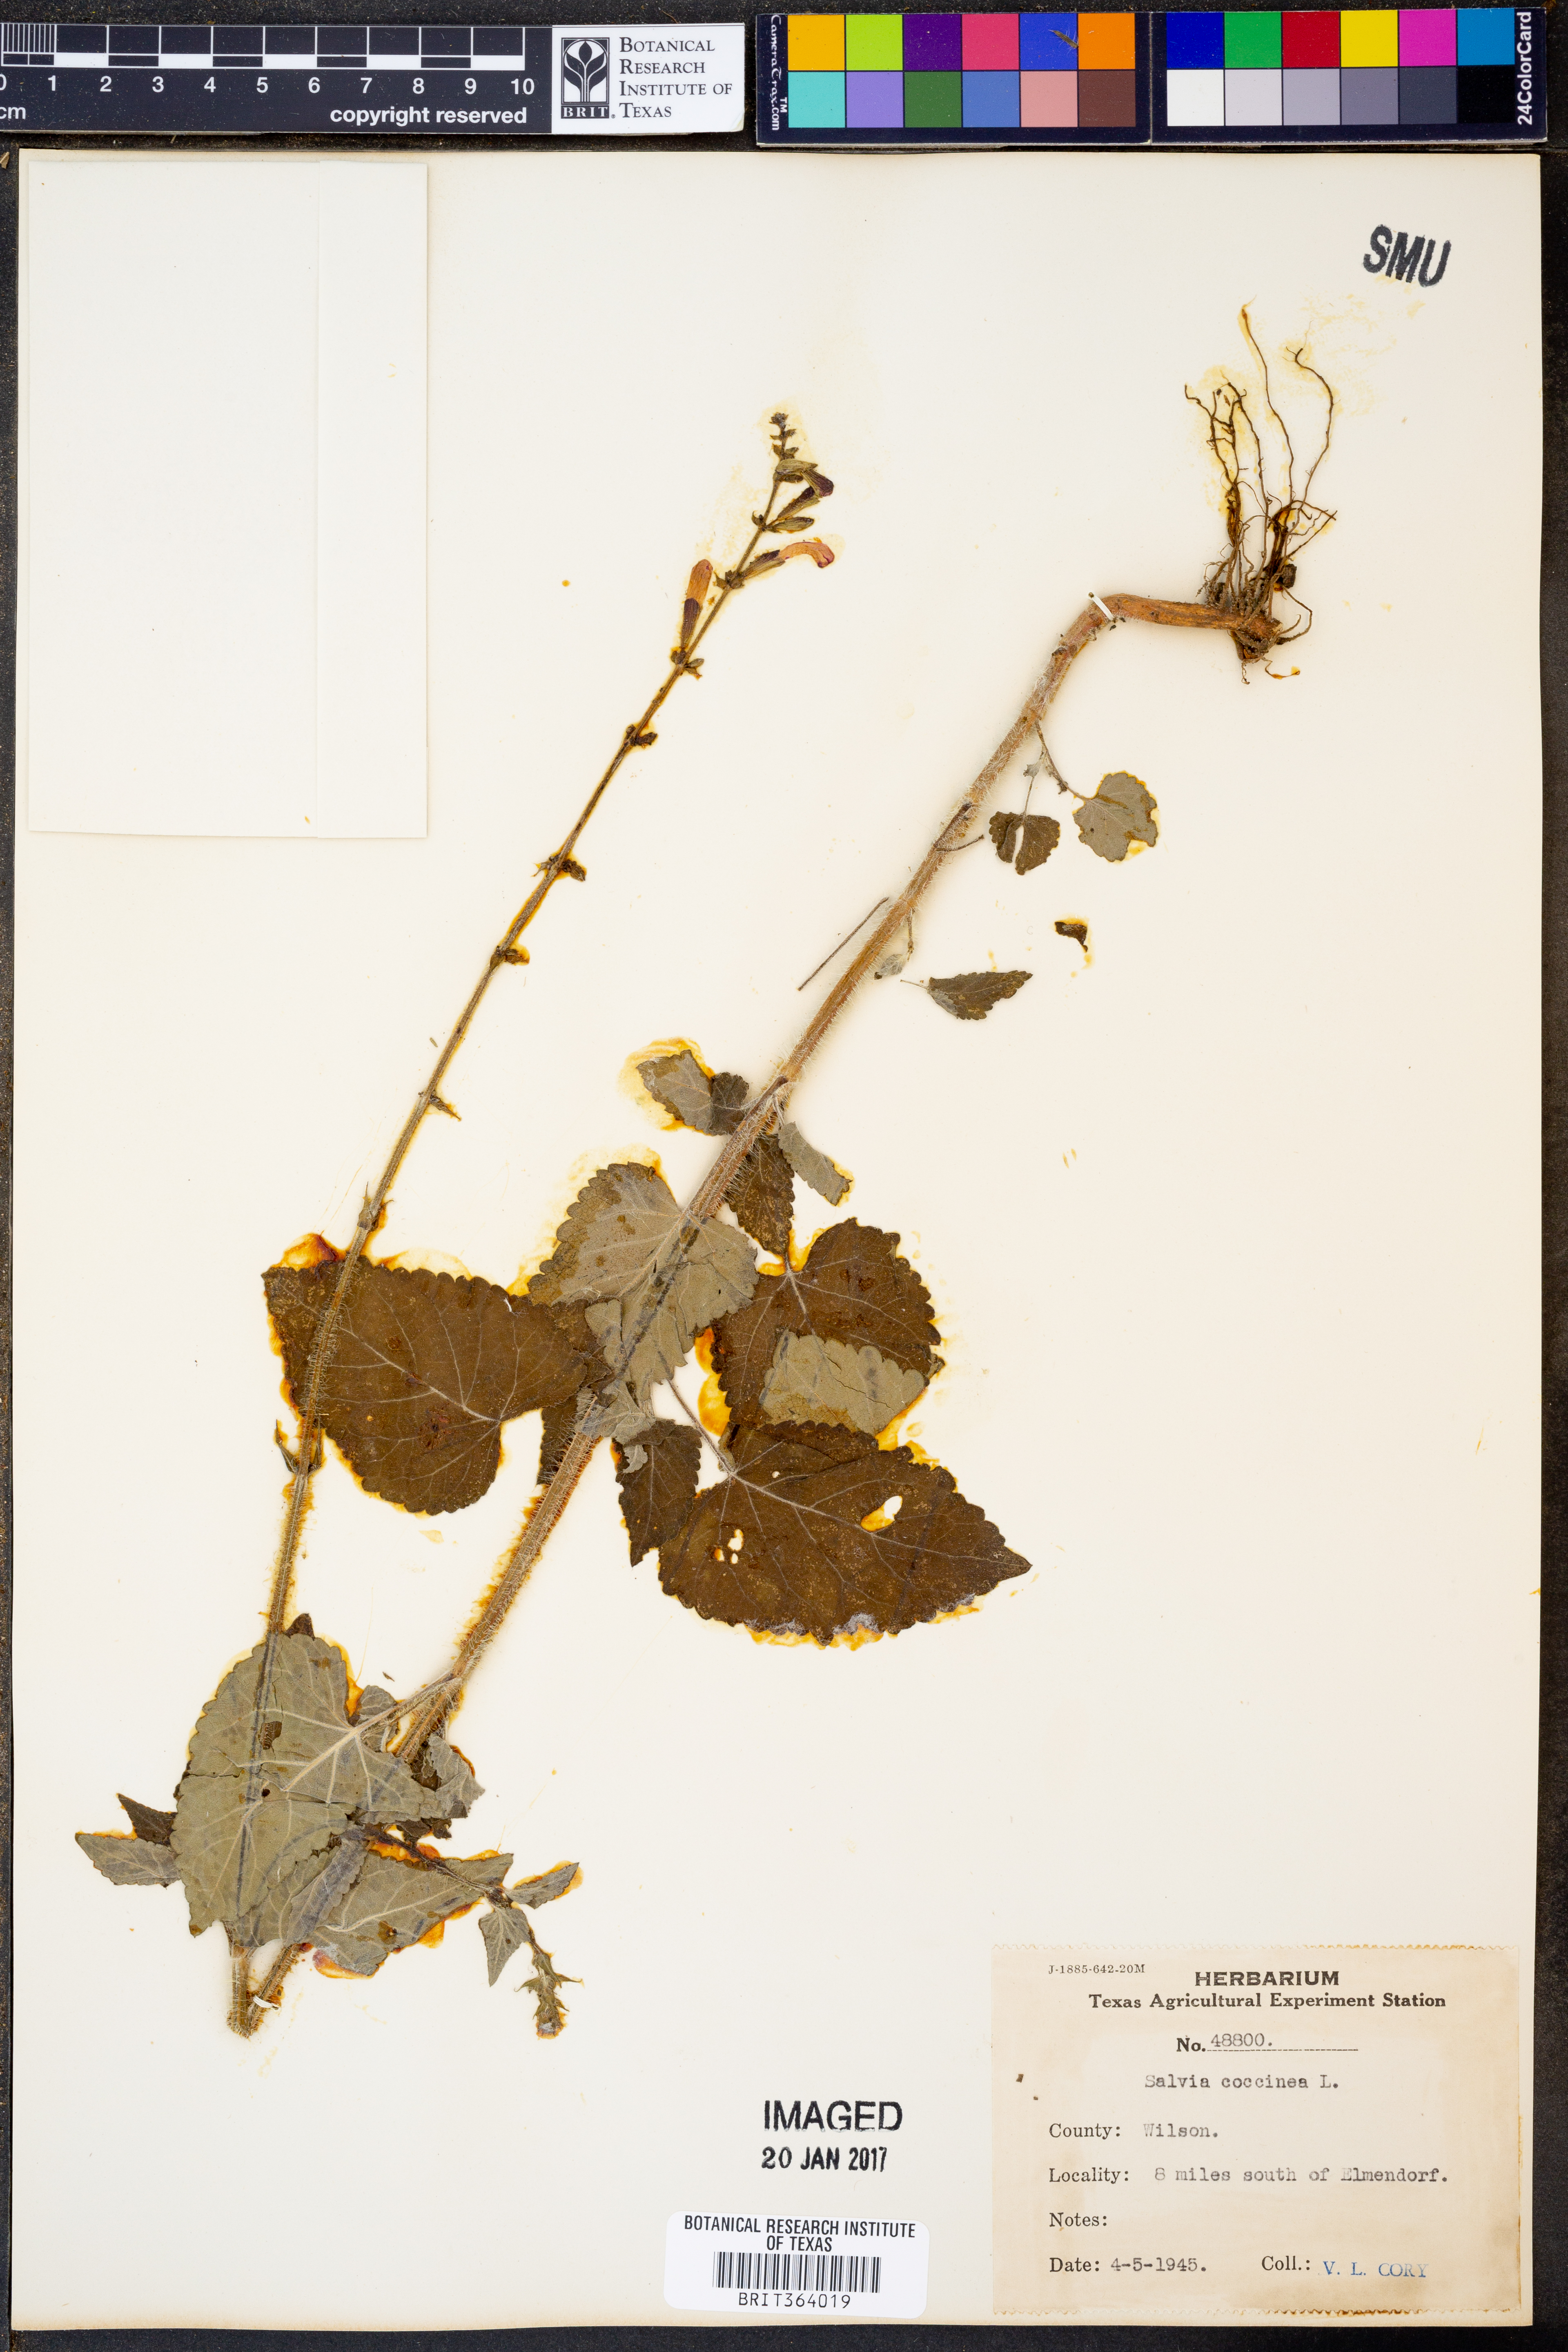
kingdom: Plantae
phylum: Tracheophyta
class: Magnoliopsida
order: Lamiales
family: Lamiaceae
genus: Salvia
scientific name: Salvia coccinea
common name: Blood sage
